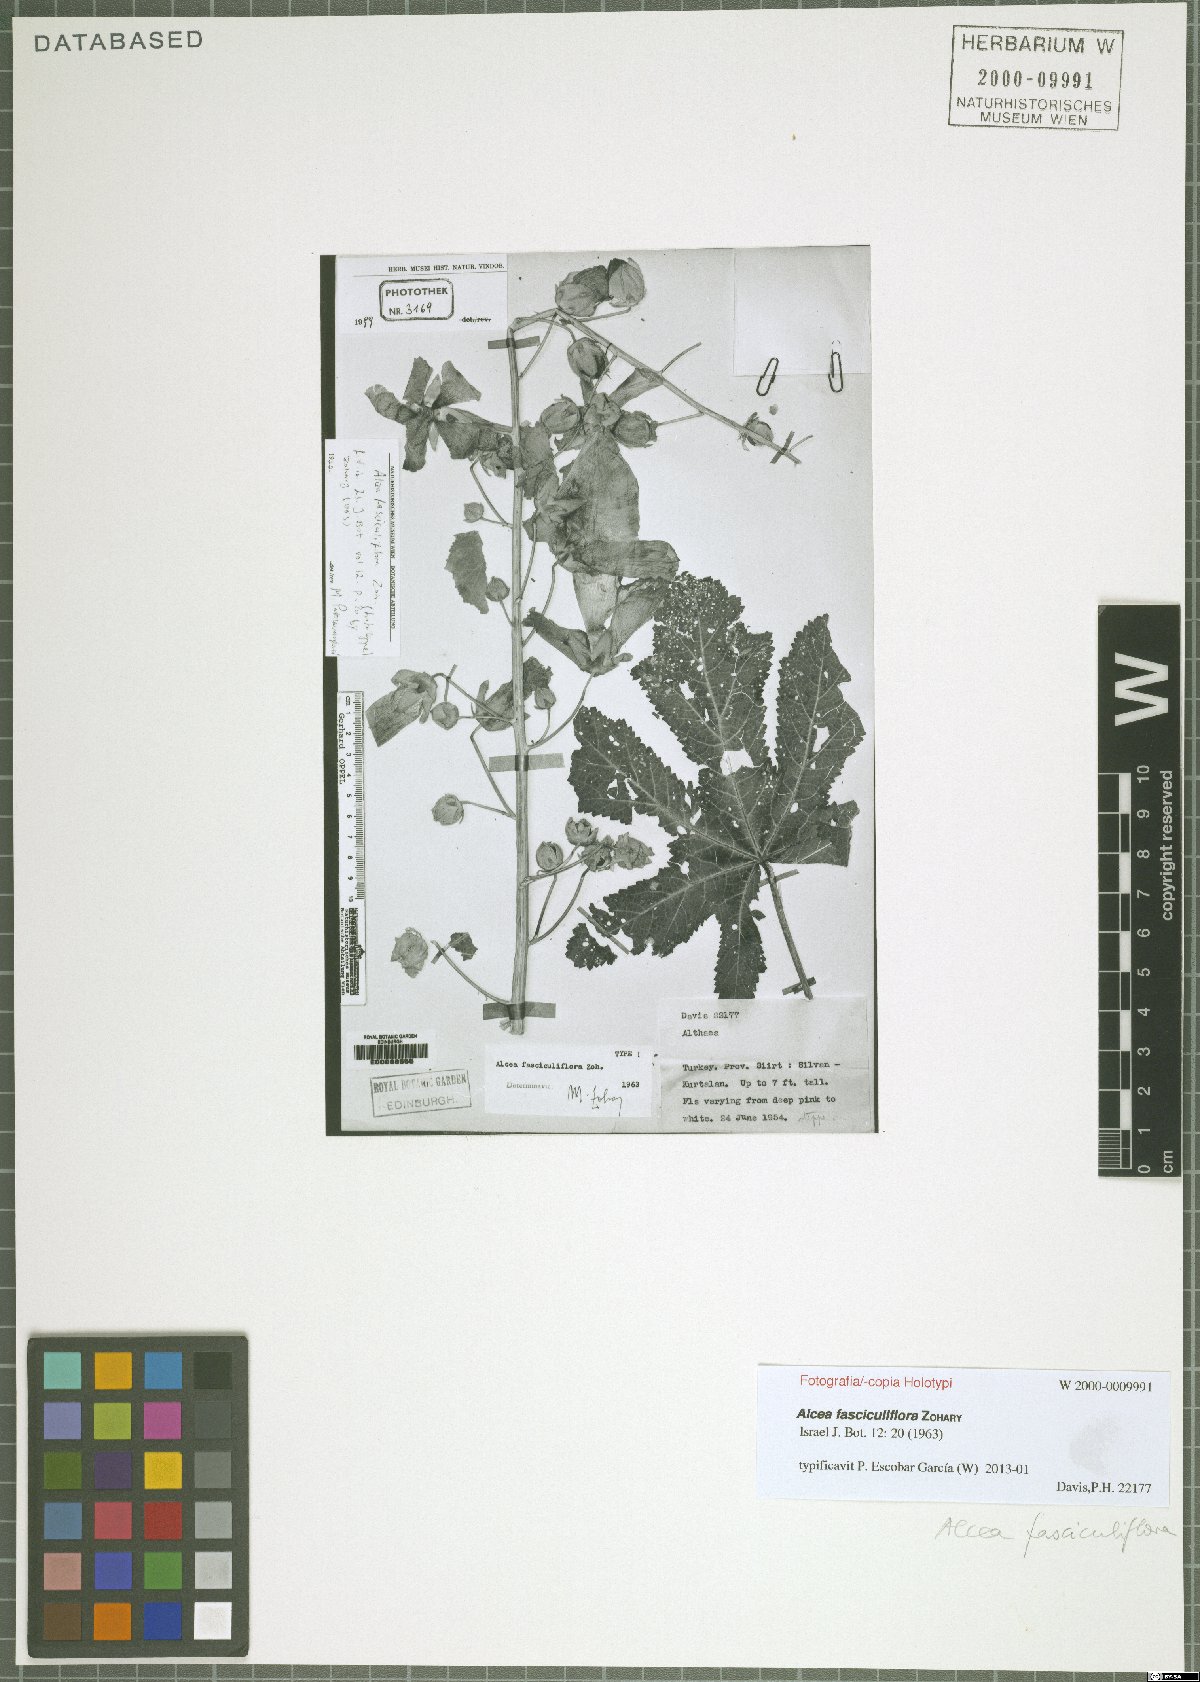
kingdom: Plantae
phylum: Tracheophyta
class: Magnoliopsida
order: Malvales
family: Malvaceae
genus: Alcea
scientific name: Alcea fasciculiflora
